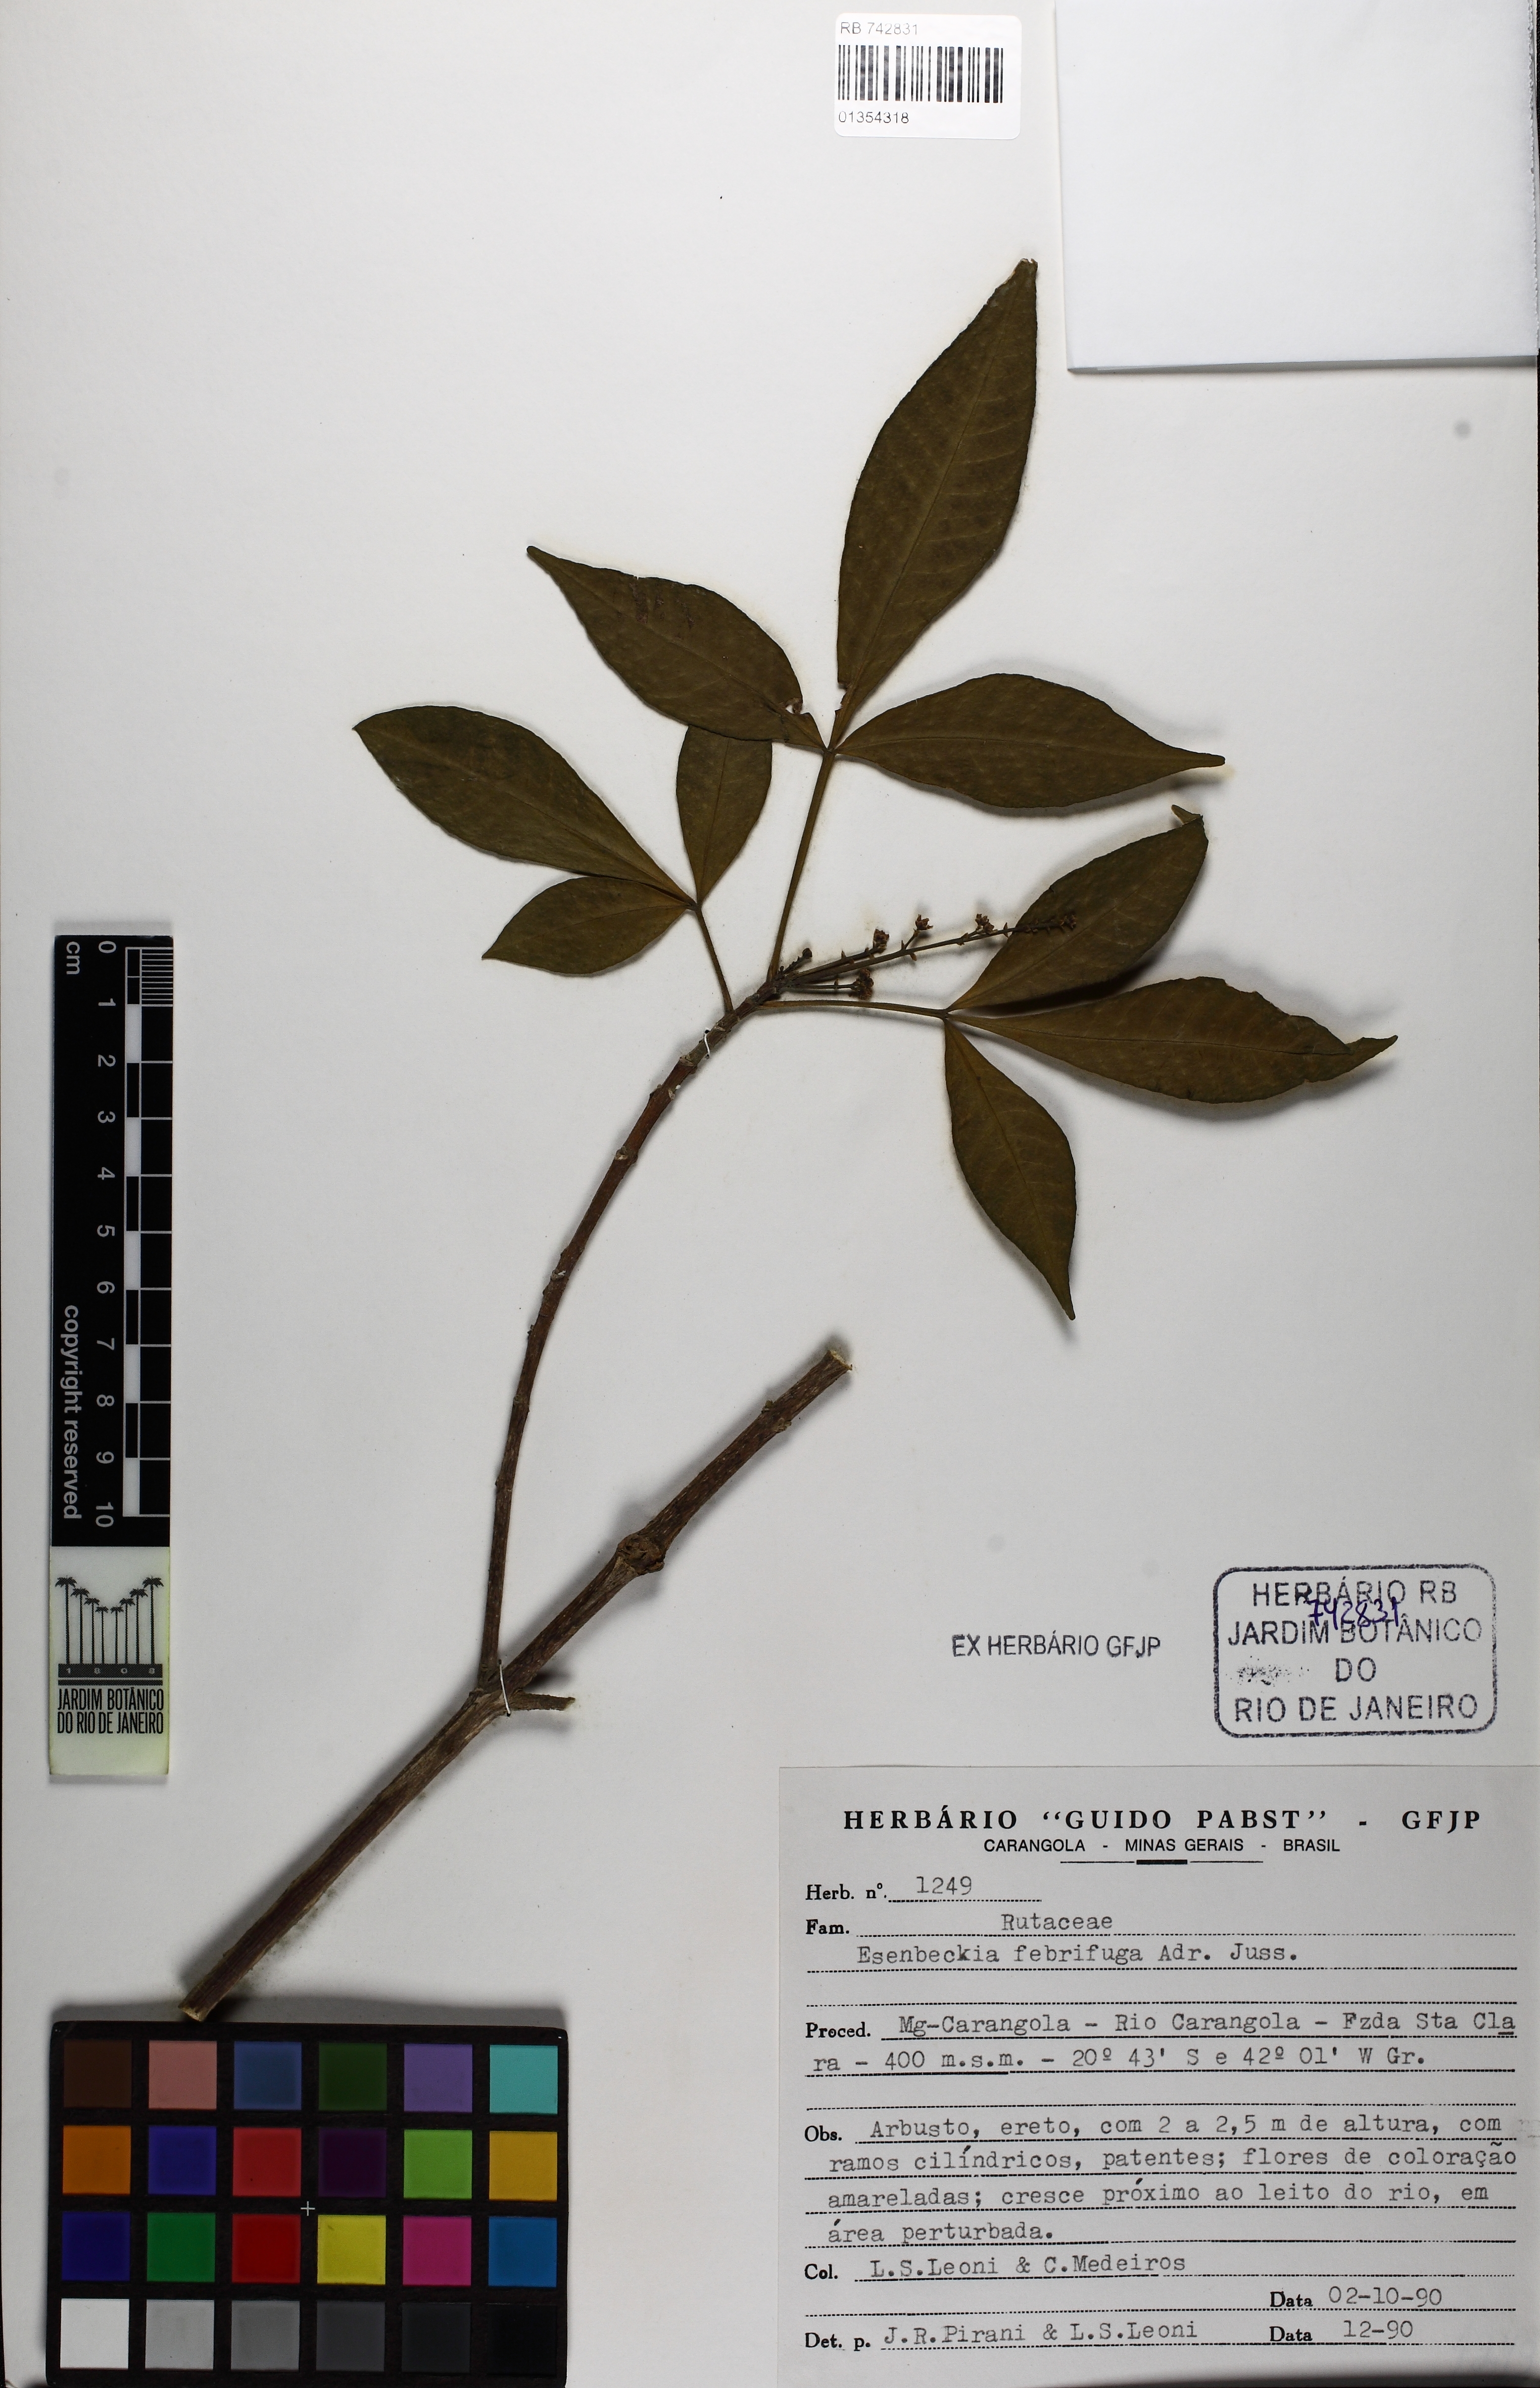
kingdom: Plantae
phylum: Tracheophyta
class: Magnoliopsida
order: Sapindales
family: Rutaceae
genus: Esenbeckia
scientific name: Esenbeckia febrifuga
